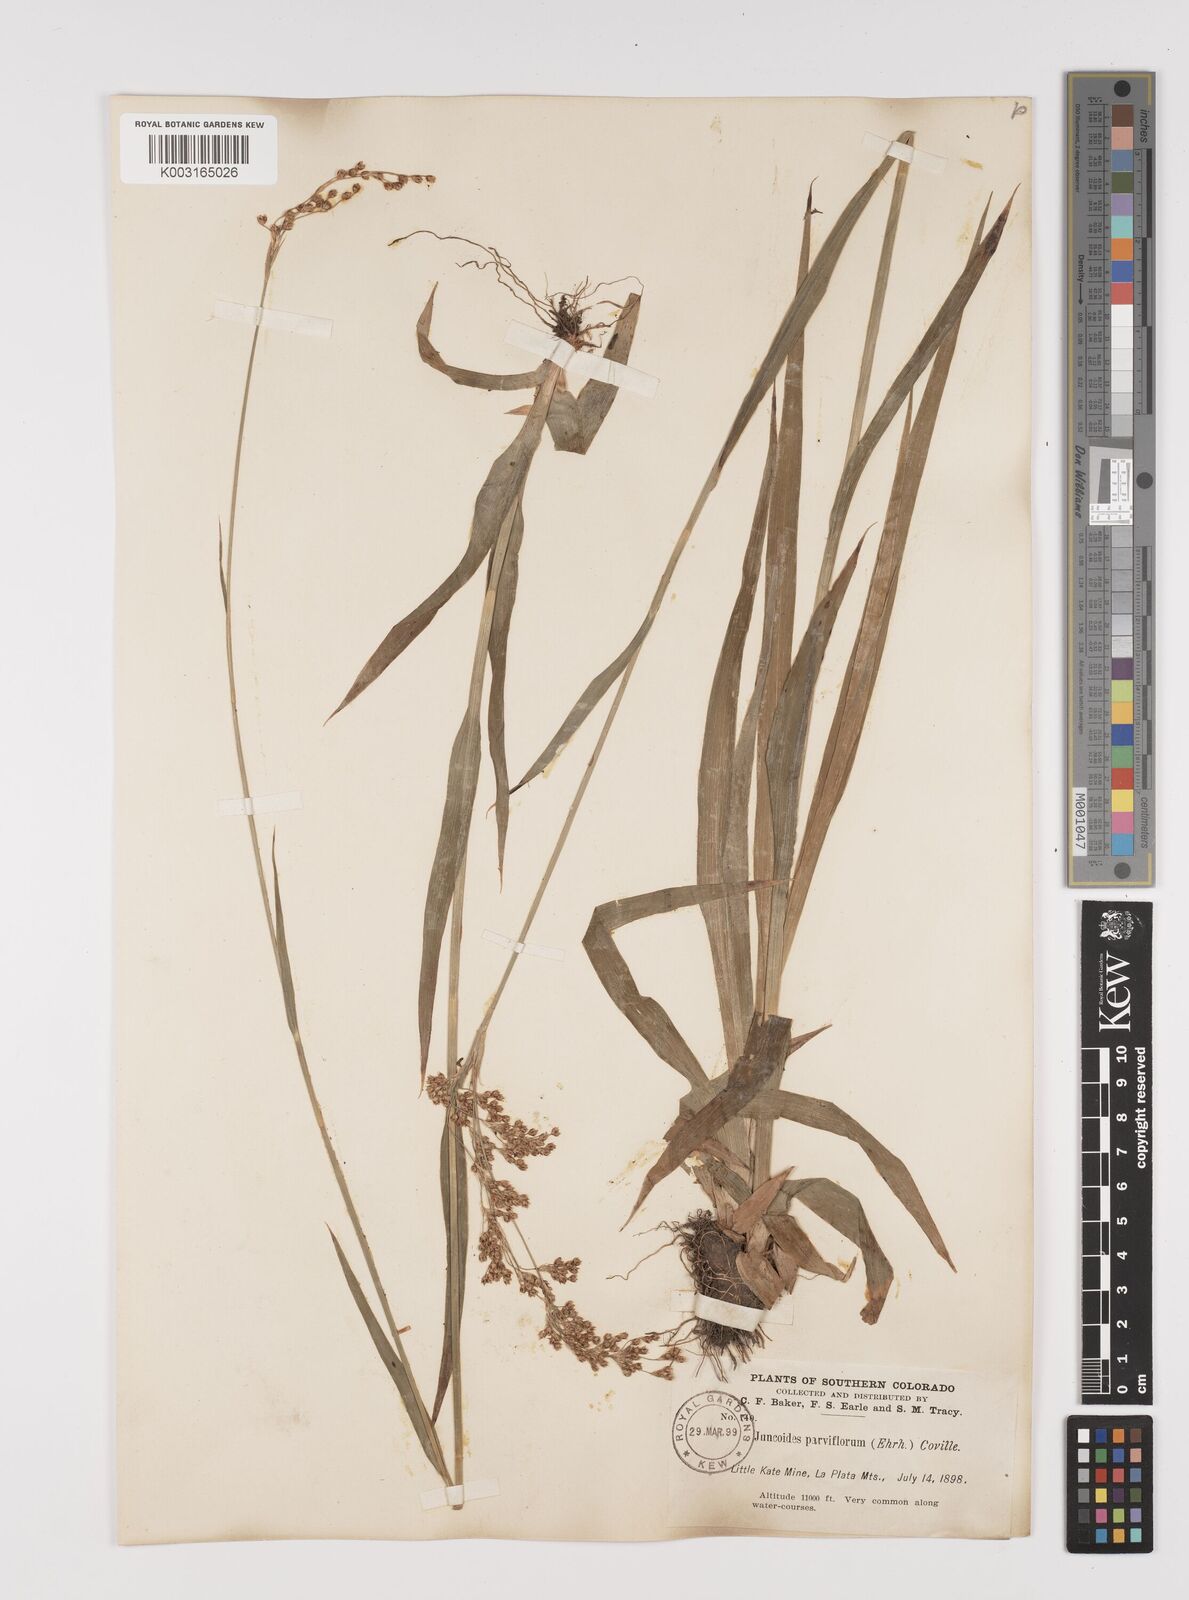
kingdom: Plantae
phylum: Tracheophyta
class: Liliopsida
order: Poales
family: Juncaceae
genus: Luzula
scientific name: Luzula parviflora
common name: Millet woodrush
